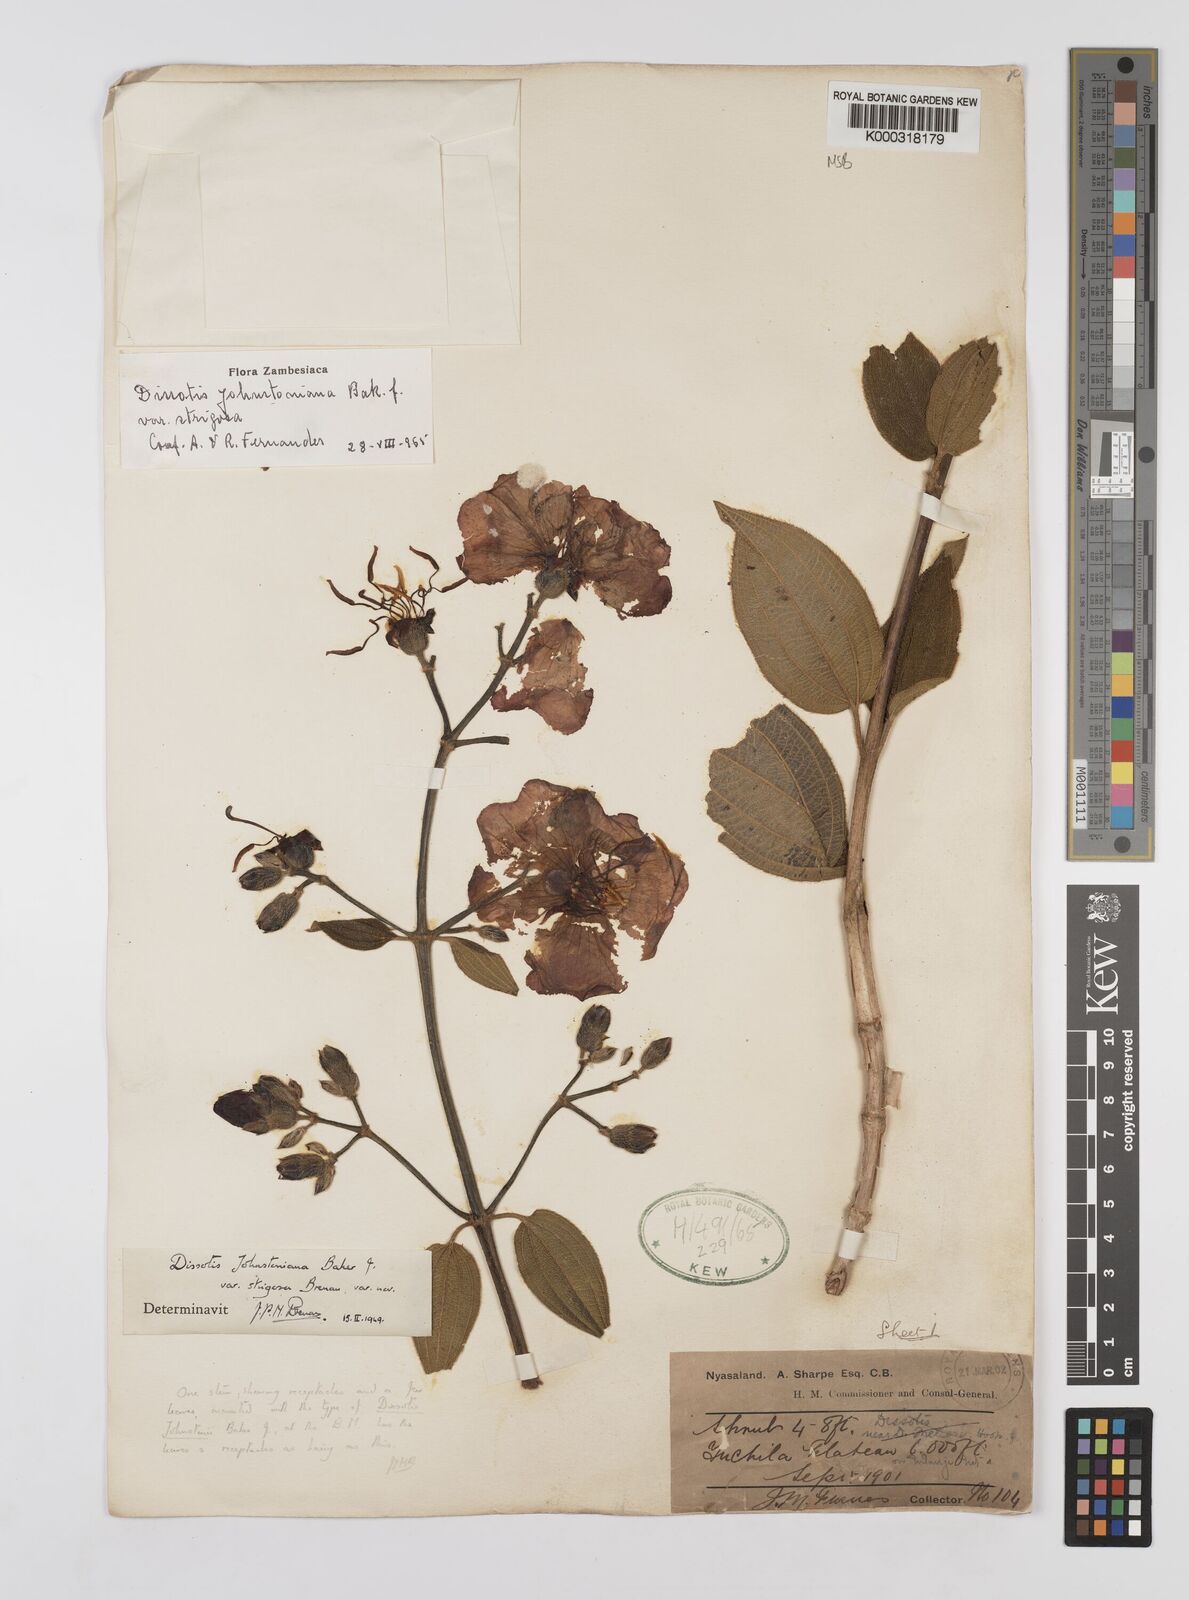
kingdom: Plantae
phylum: Tracheophyta
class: Magnoliopsida
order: Myrtales
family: Melastomataceae
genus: Dissotidendron
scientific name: Dissotidendron johnstonianum
